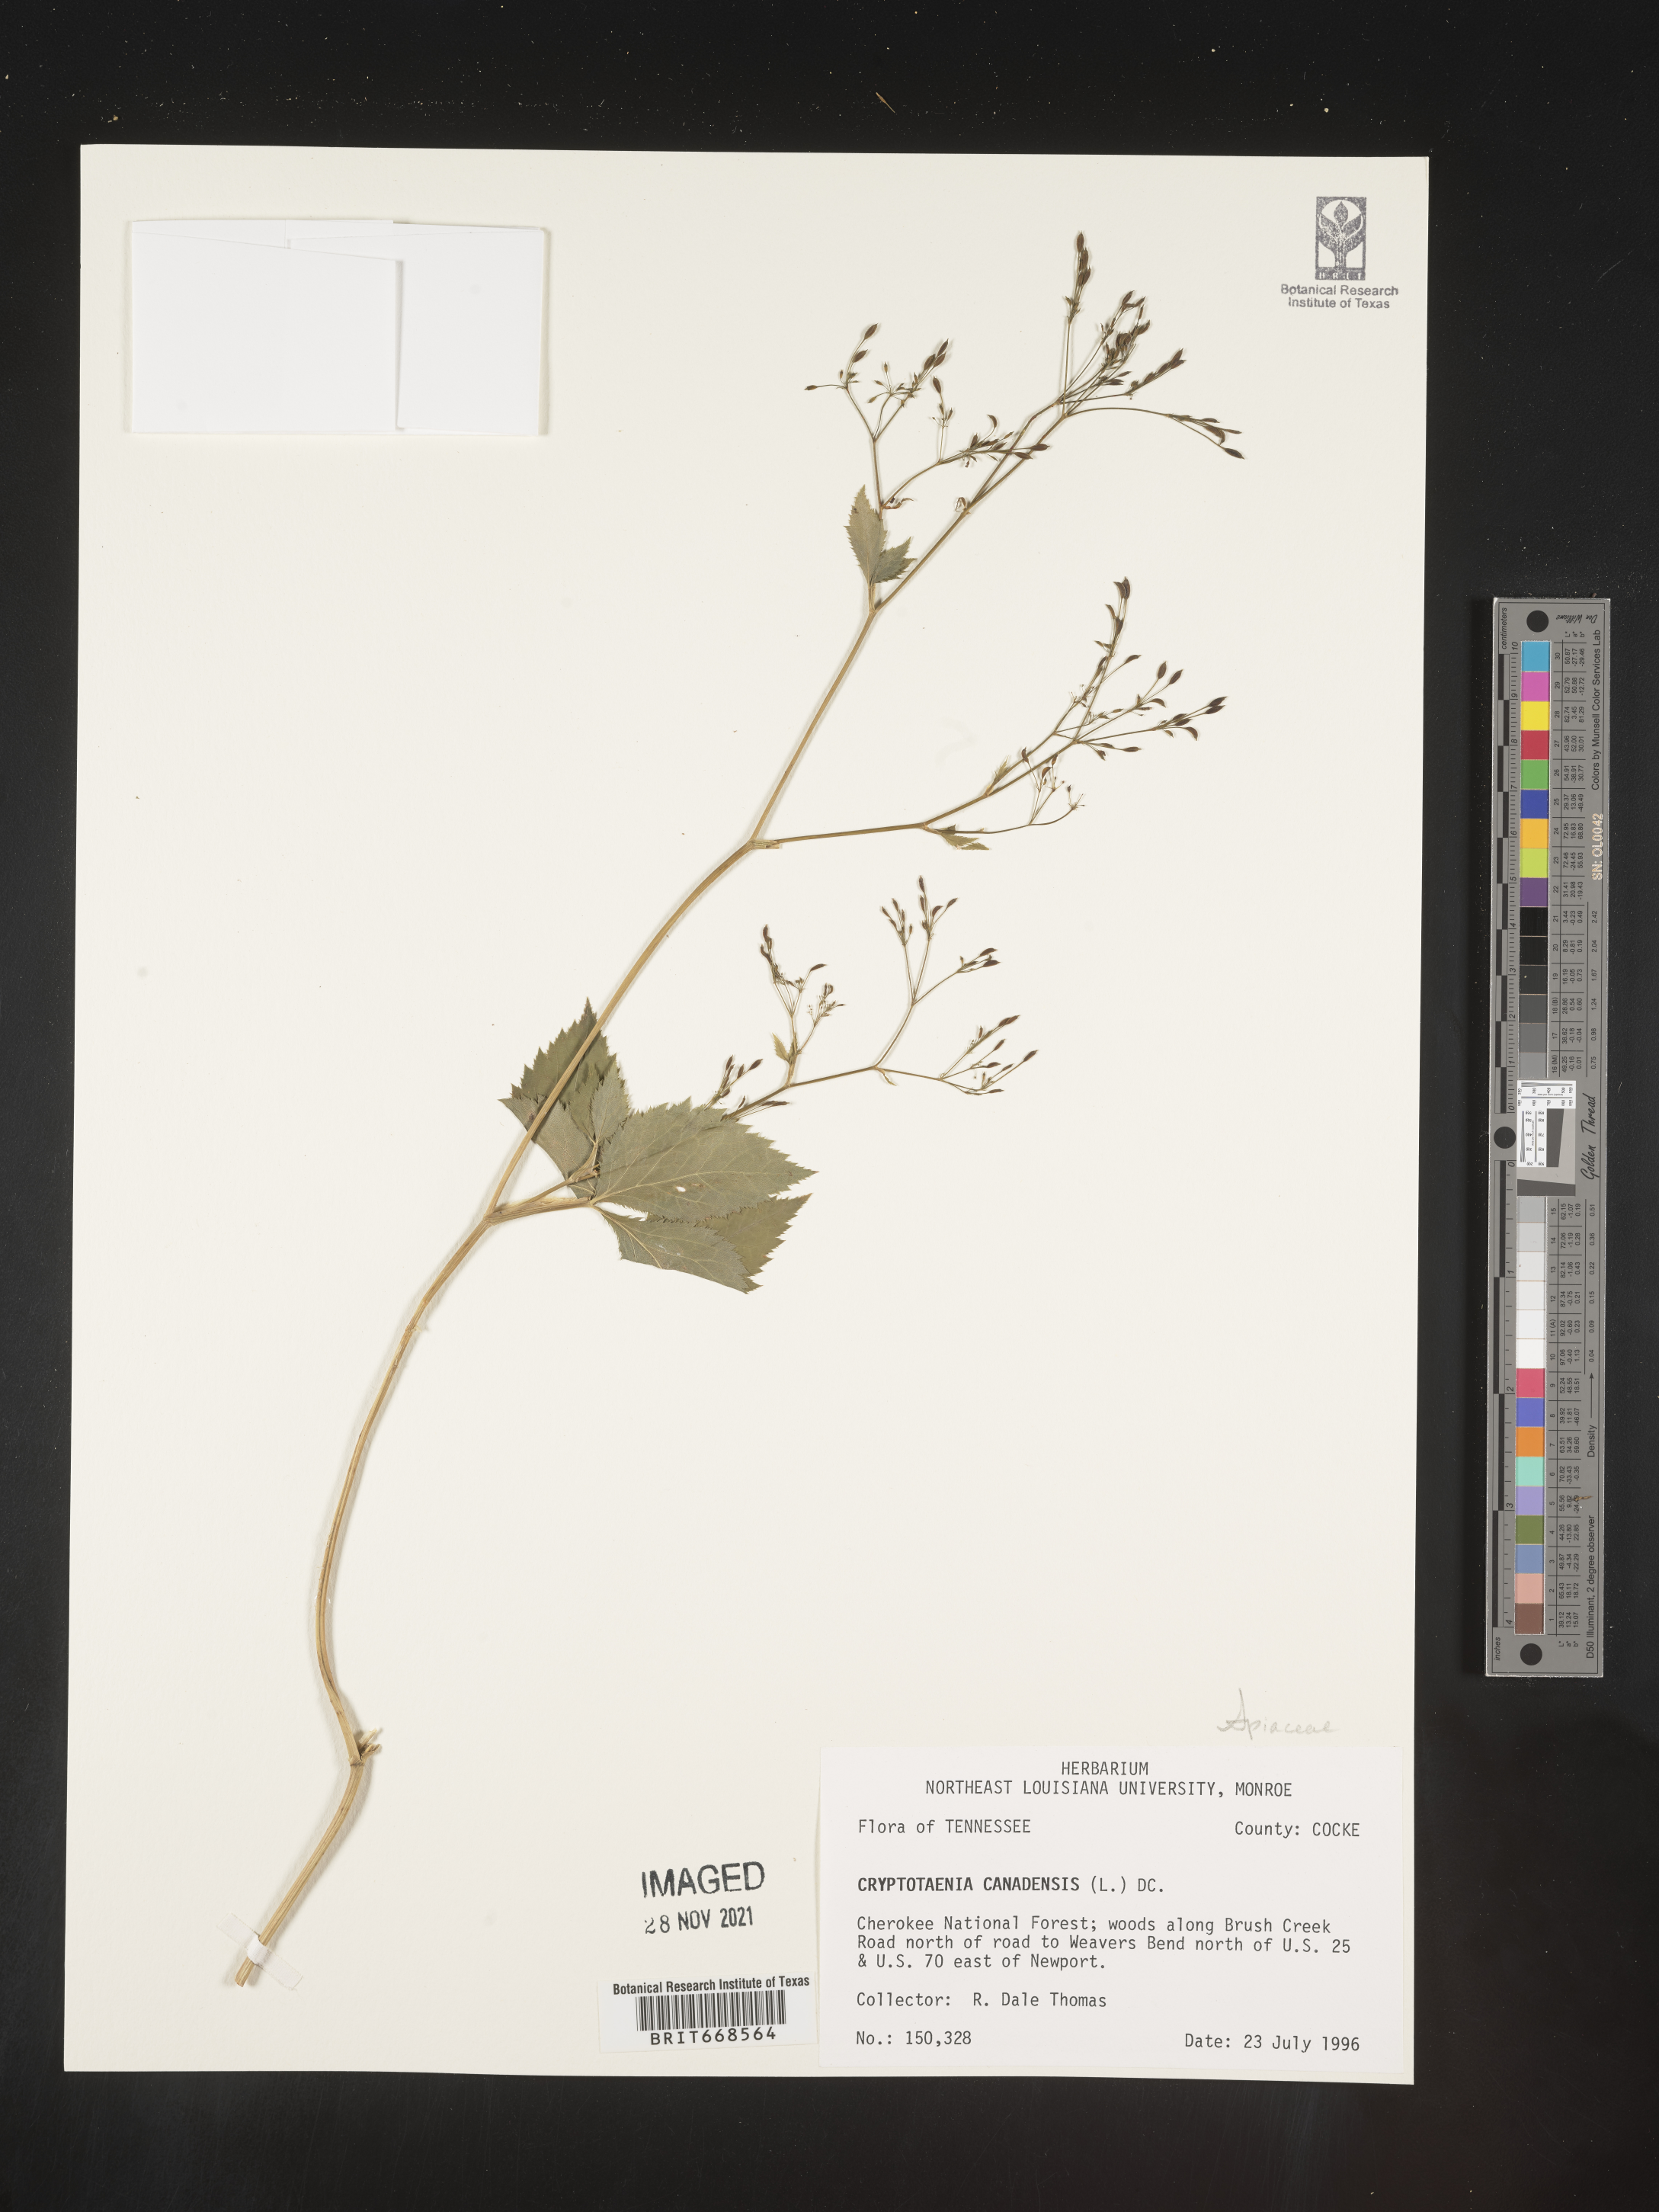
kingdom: Plantae
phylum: Tracheophyta
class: Magnoliopsida
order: Apiales
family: Apiaceae
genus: Cryptotaenia
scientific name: Cryptotaenia canadensis
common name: Honewort
